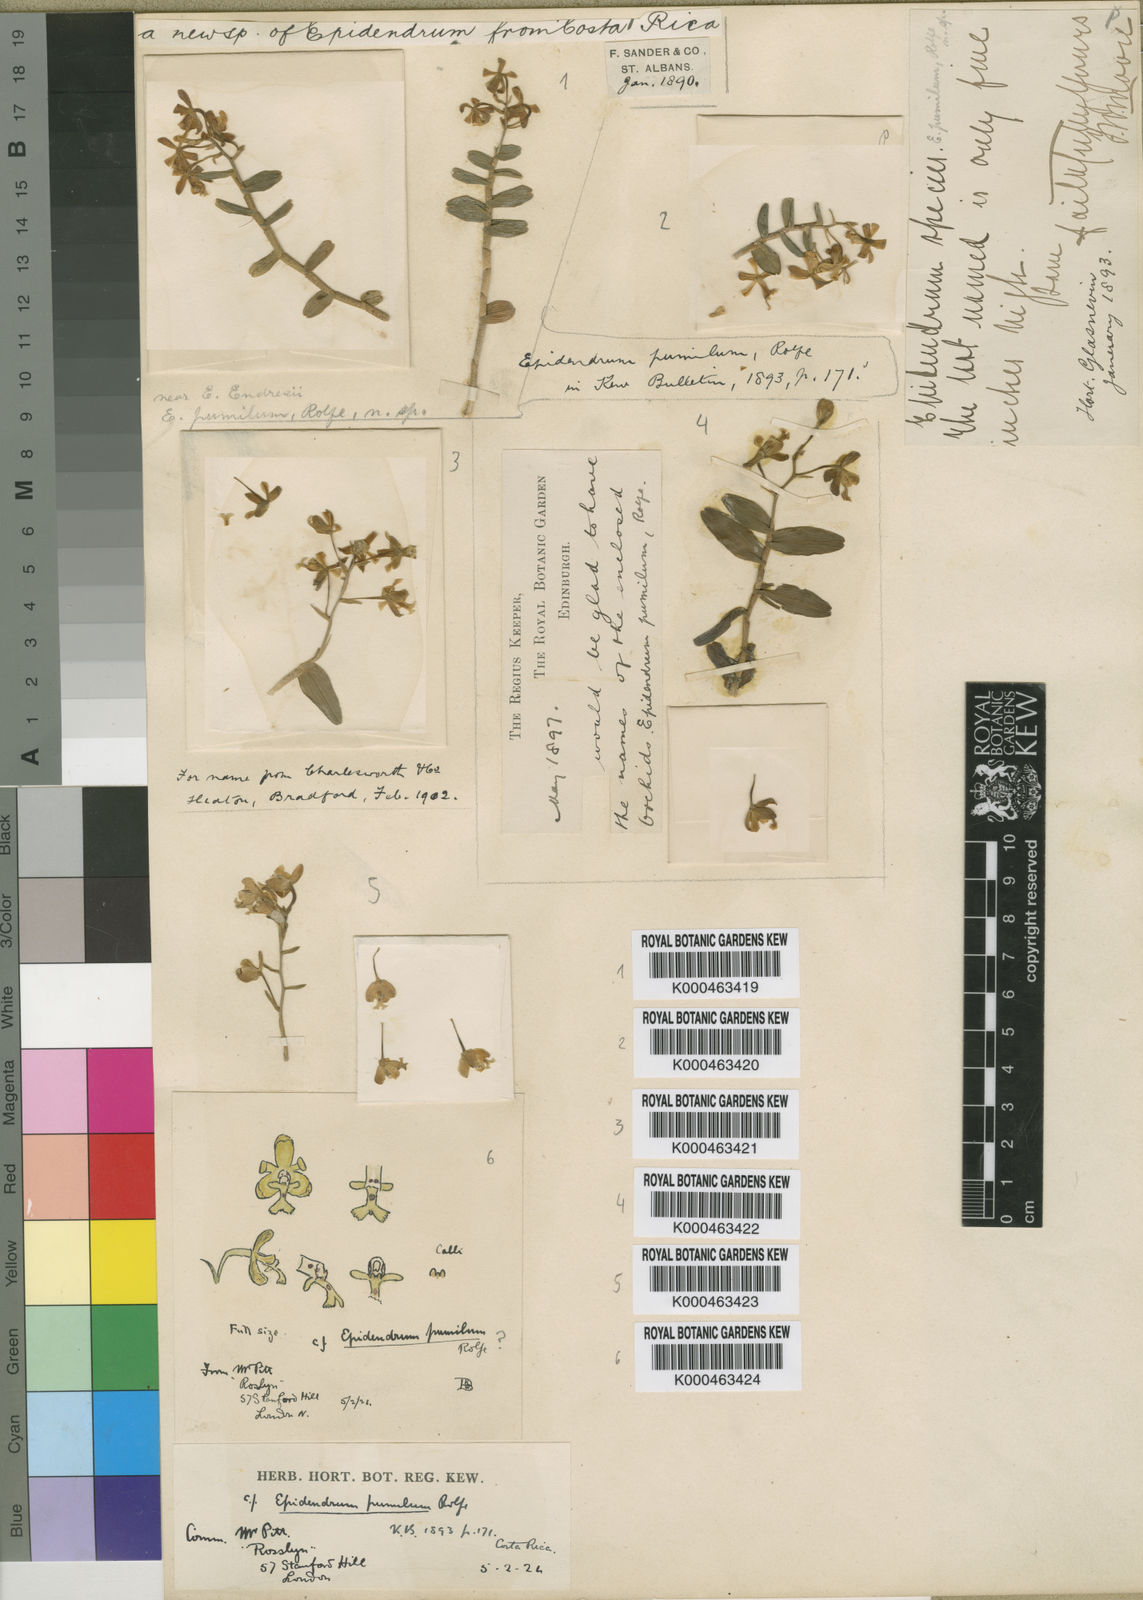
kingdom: Plantae
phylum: Tracheophyta
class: Liliopsida
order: Asparagales
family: Orchidaceae
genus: Epidendrum
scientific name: Epidendrum pumilum
